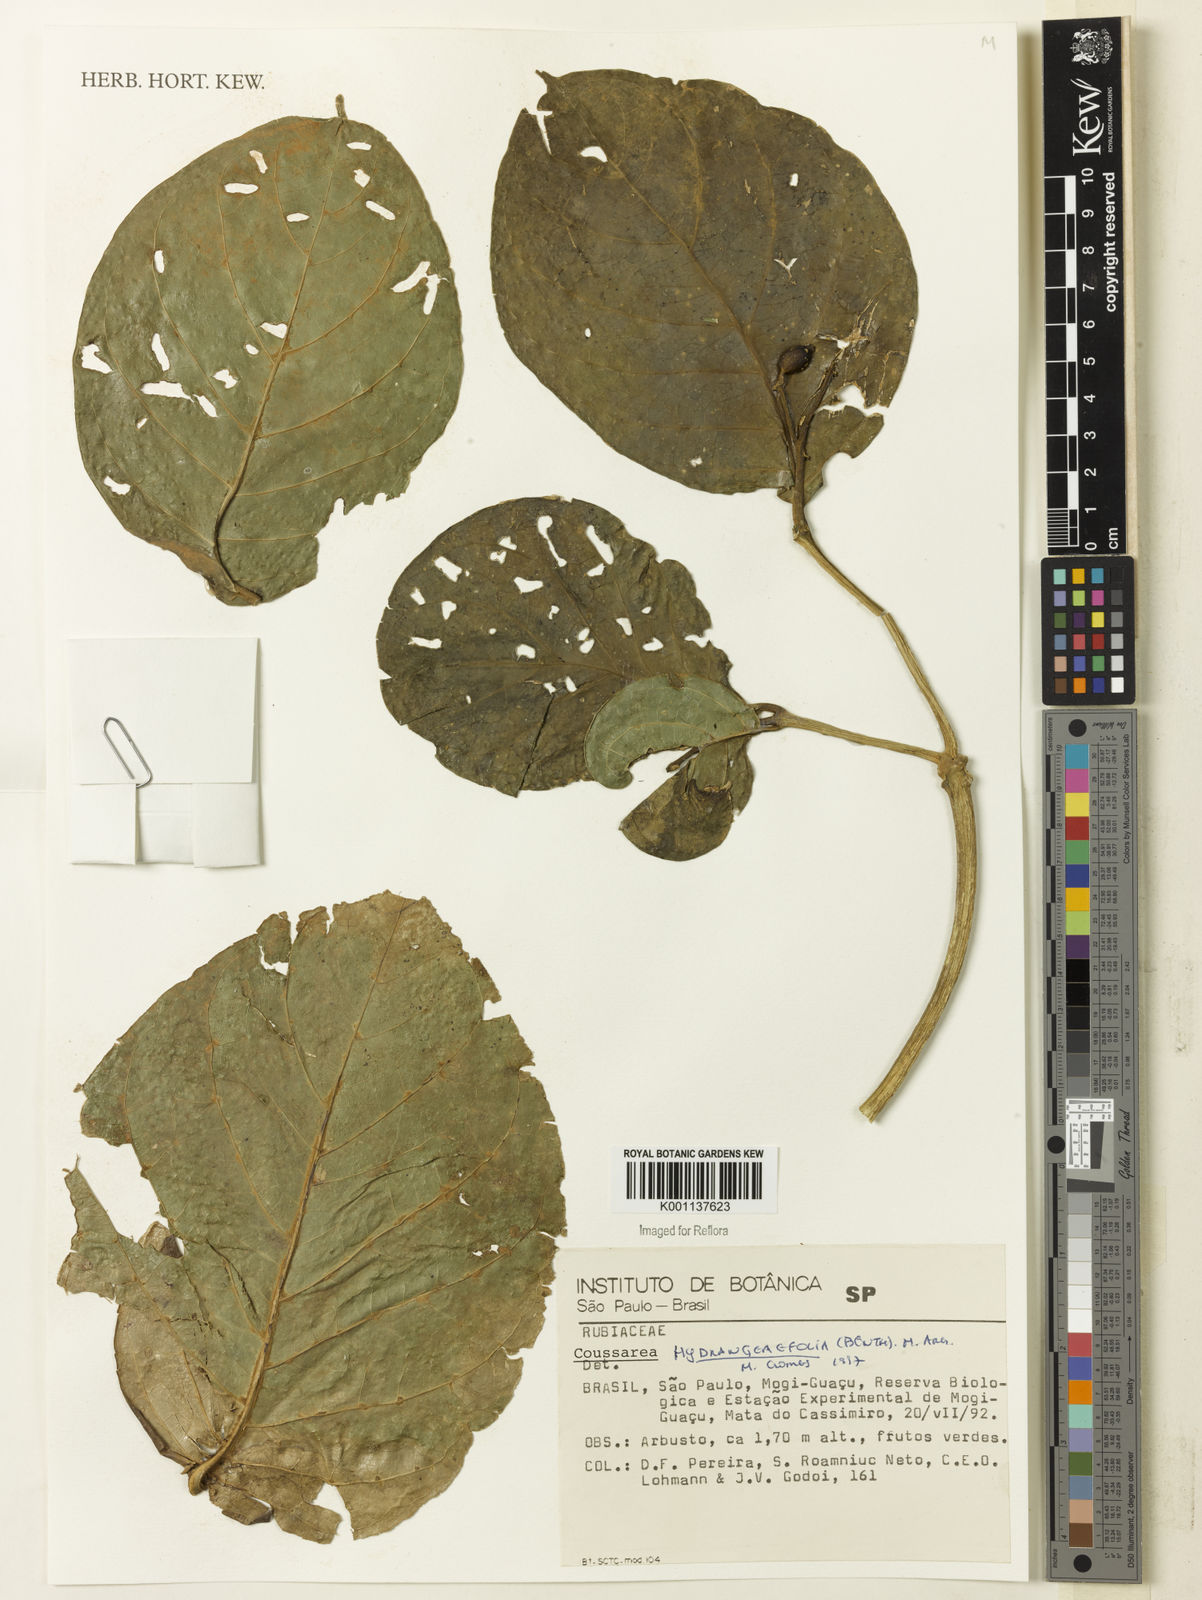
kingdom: Plantae
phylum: Tracheophyta
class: Magnoliopsida
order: Gentianales
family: Rubiaceae
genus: Coussarea
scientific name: Coussarea
